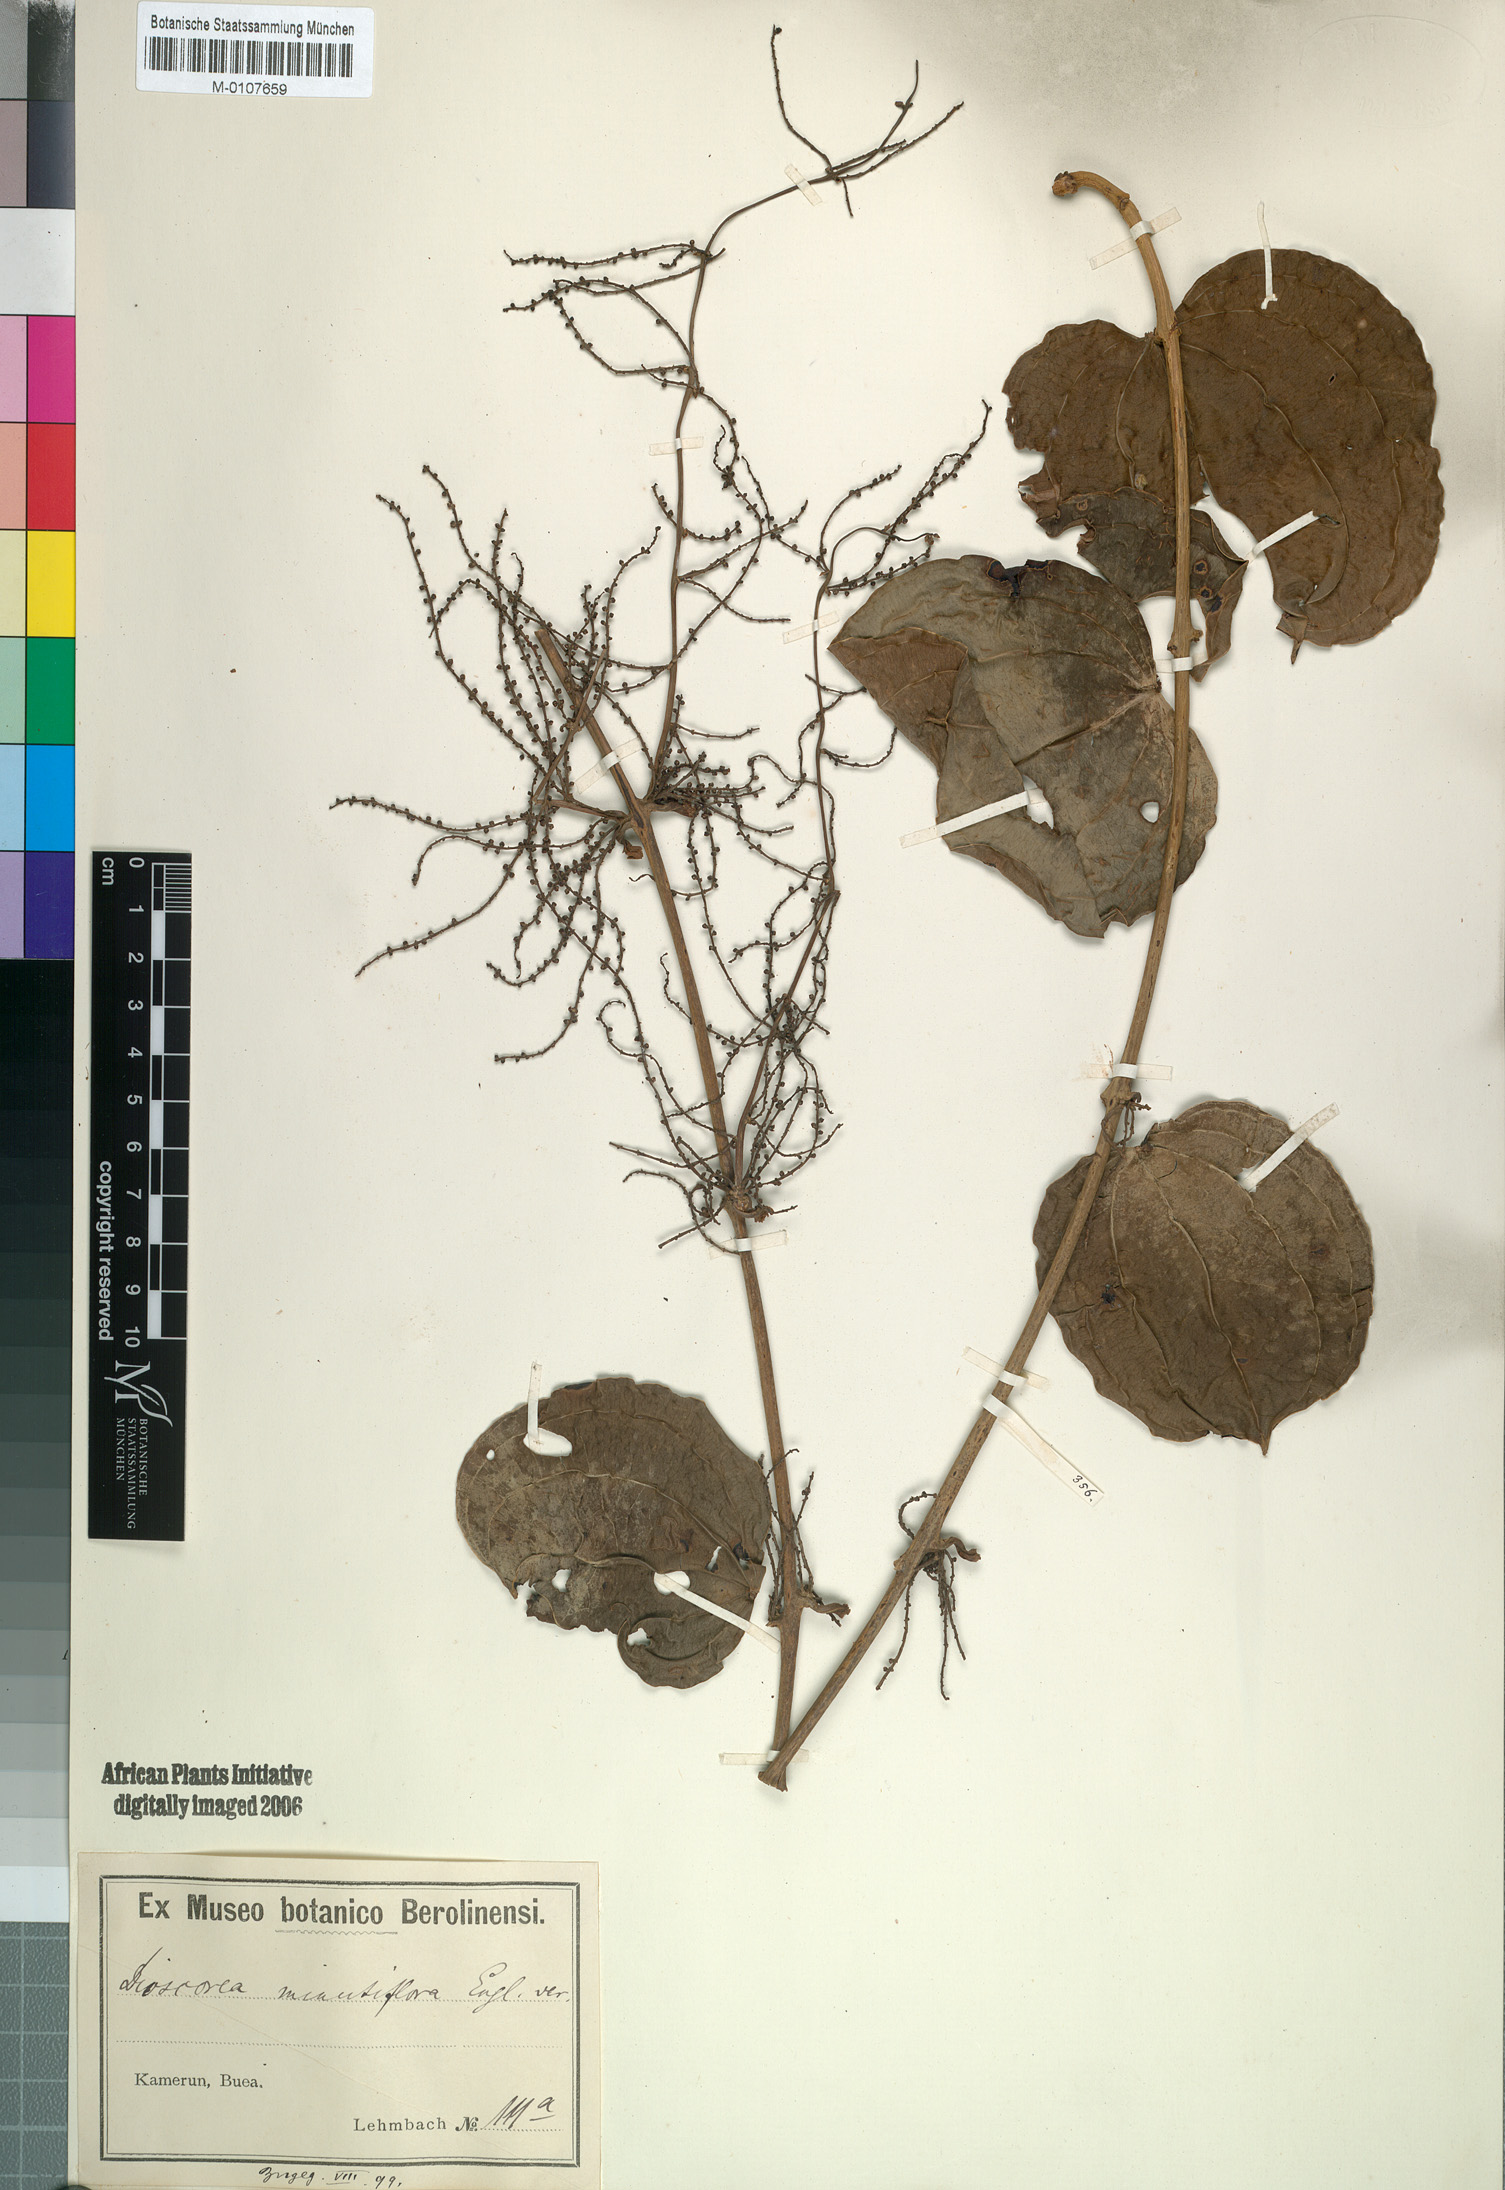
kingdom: Plantae
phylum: Tracheophyta
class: Liliopsida
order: Dioscoreales
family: Dioscoreaceae
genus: Dioscorea
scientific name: Dioscorea minutiflora
